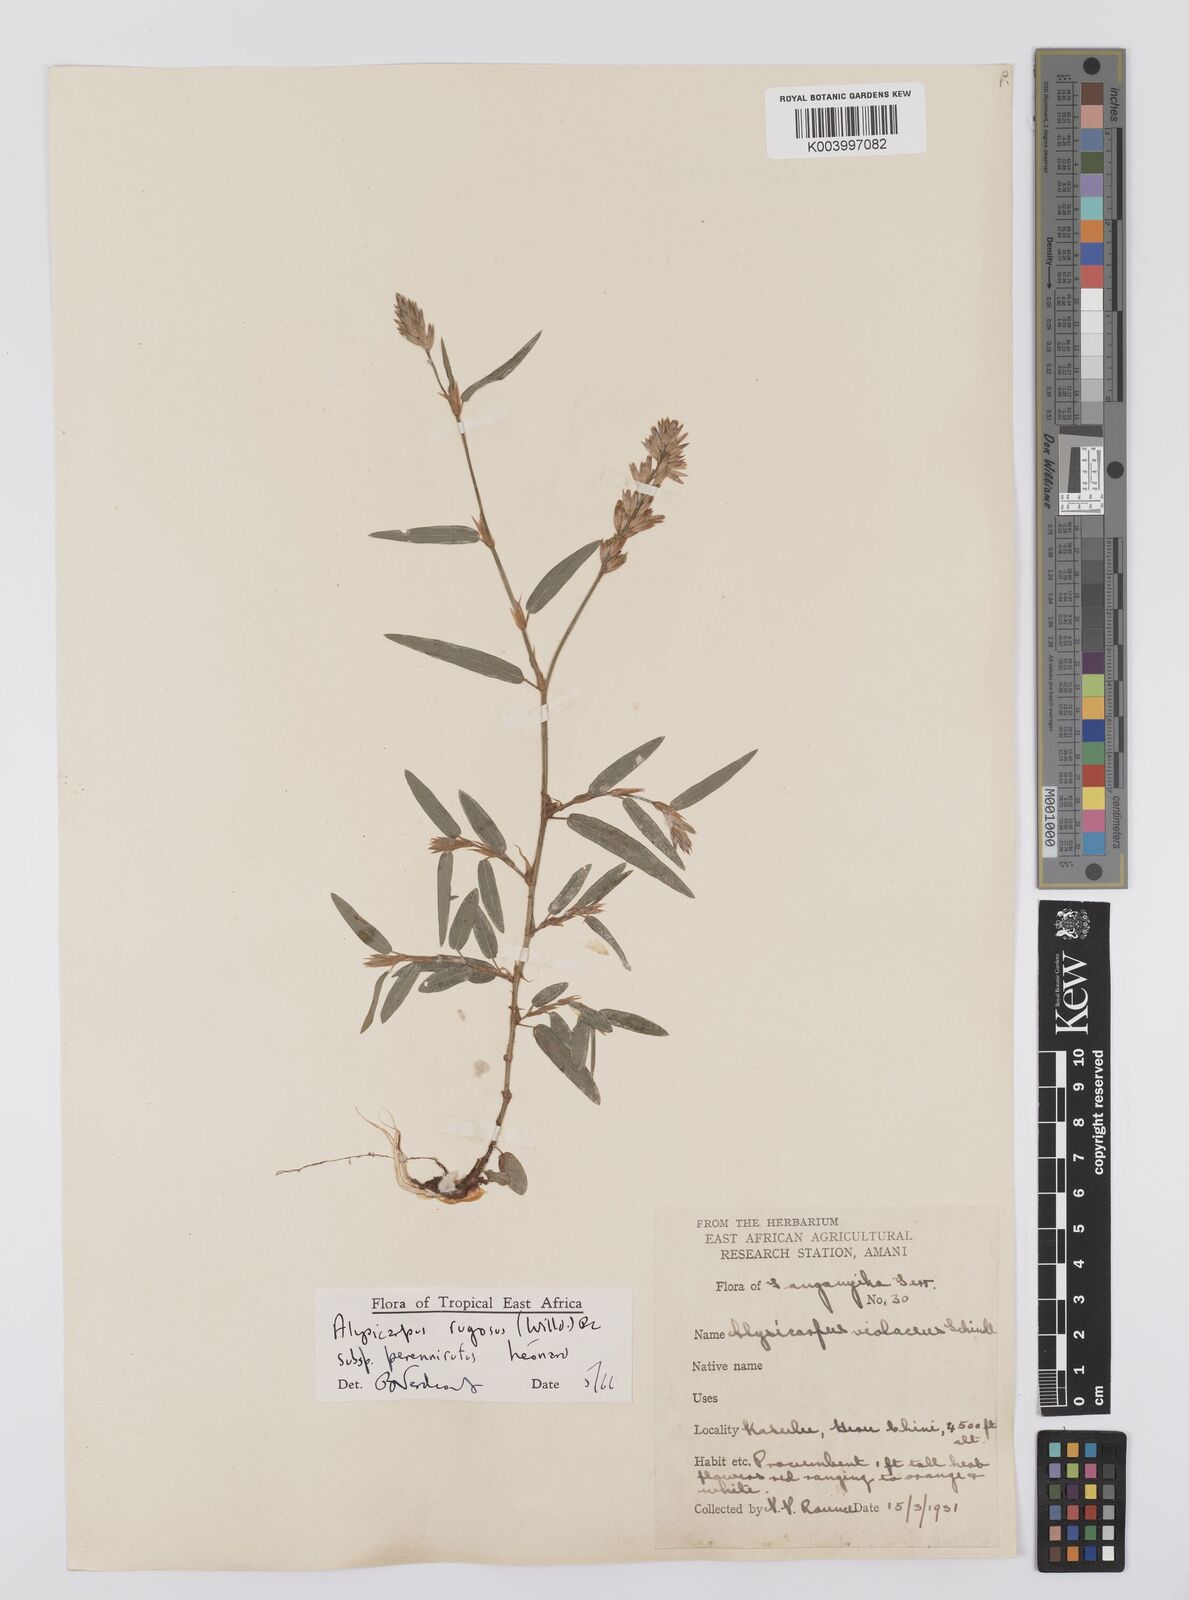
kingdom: Plantae
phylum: Tracheophyta
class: Magnoliopsida
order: Fabales
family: Fabaceae
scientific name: Fabaceae
